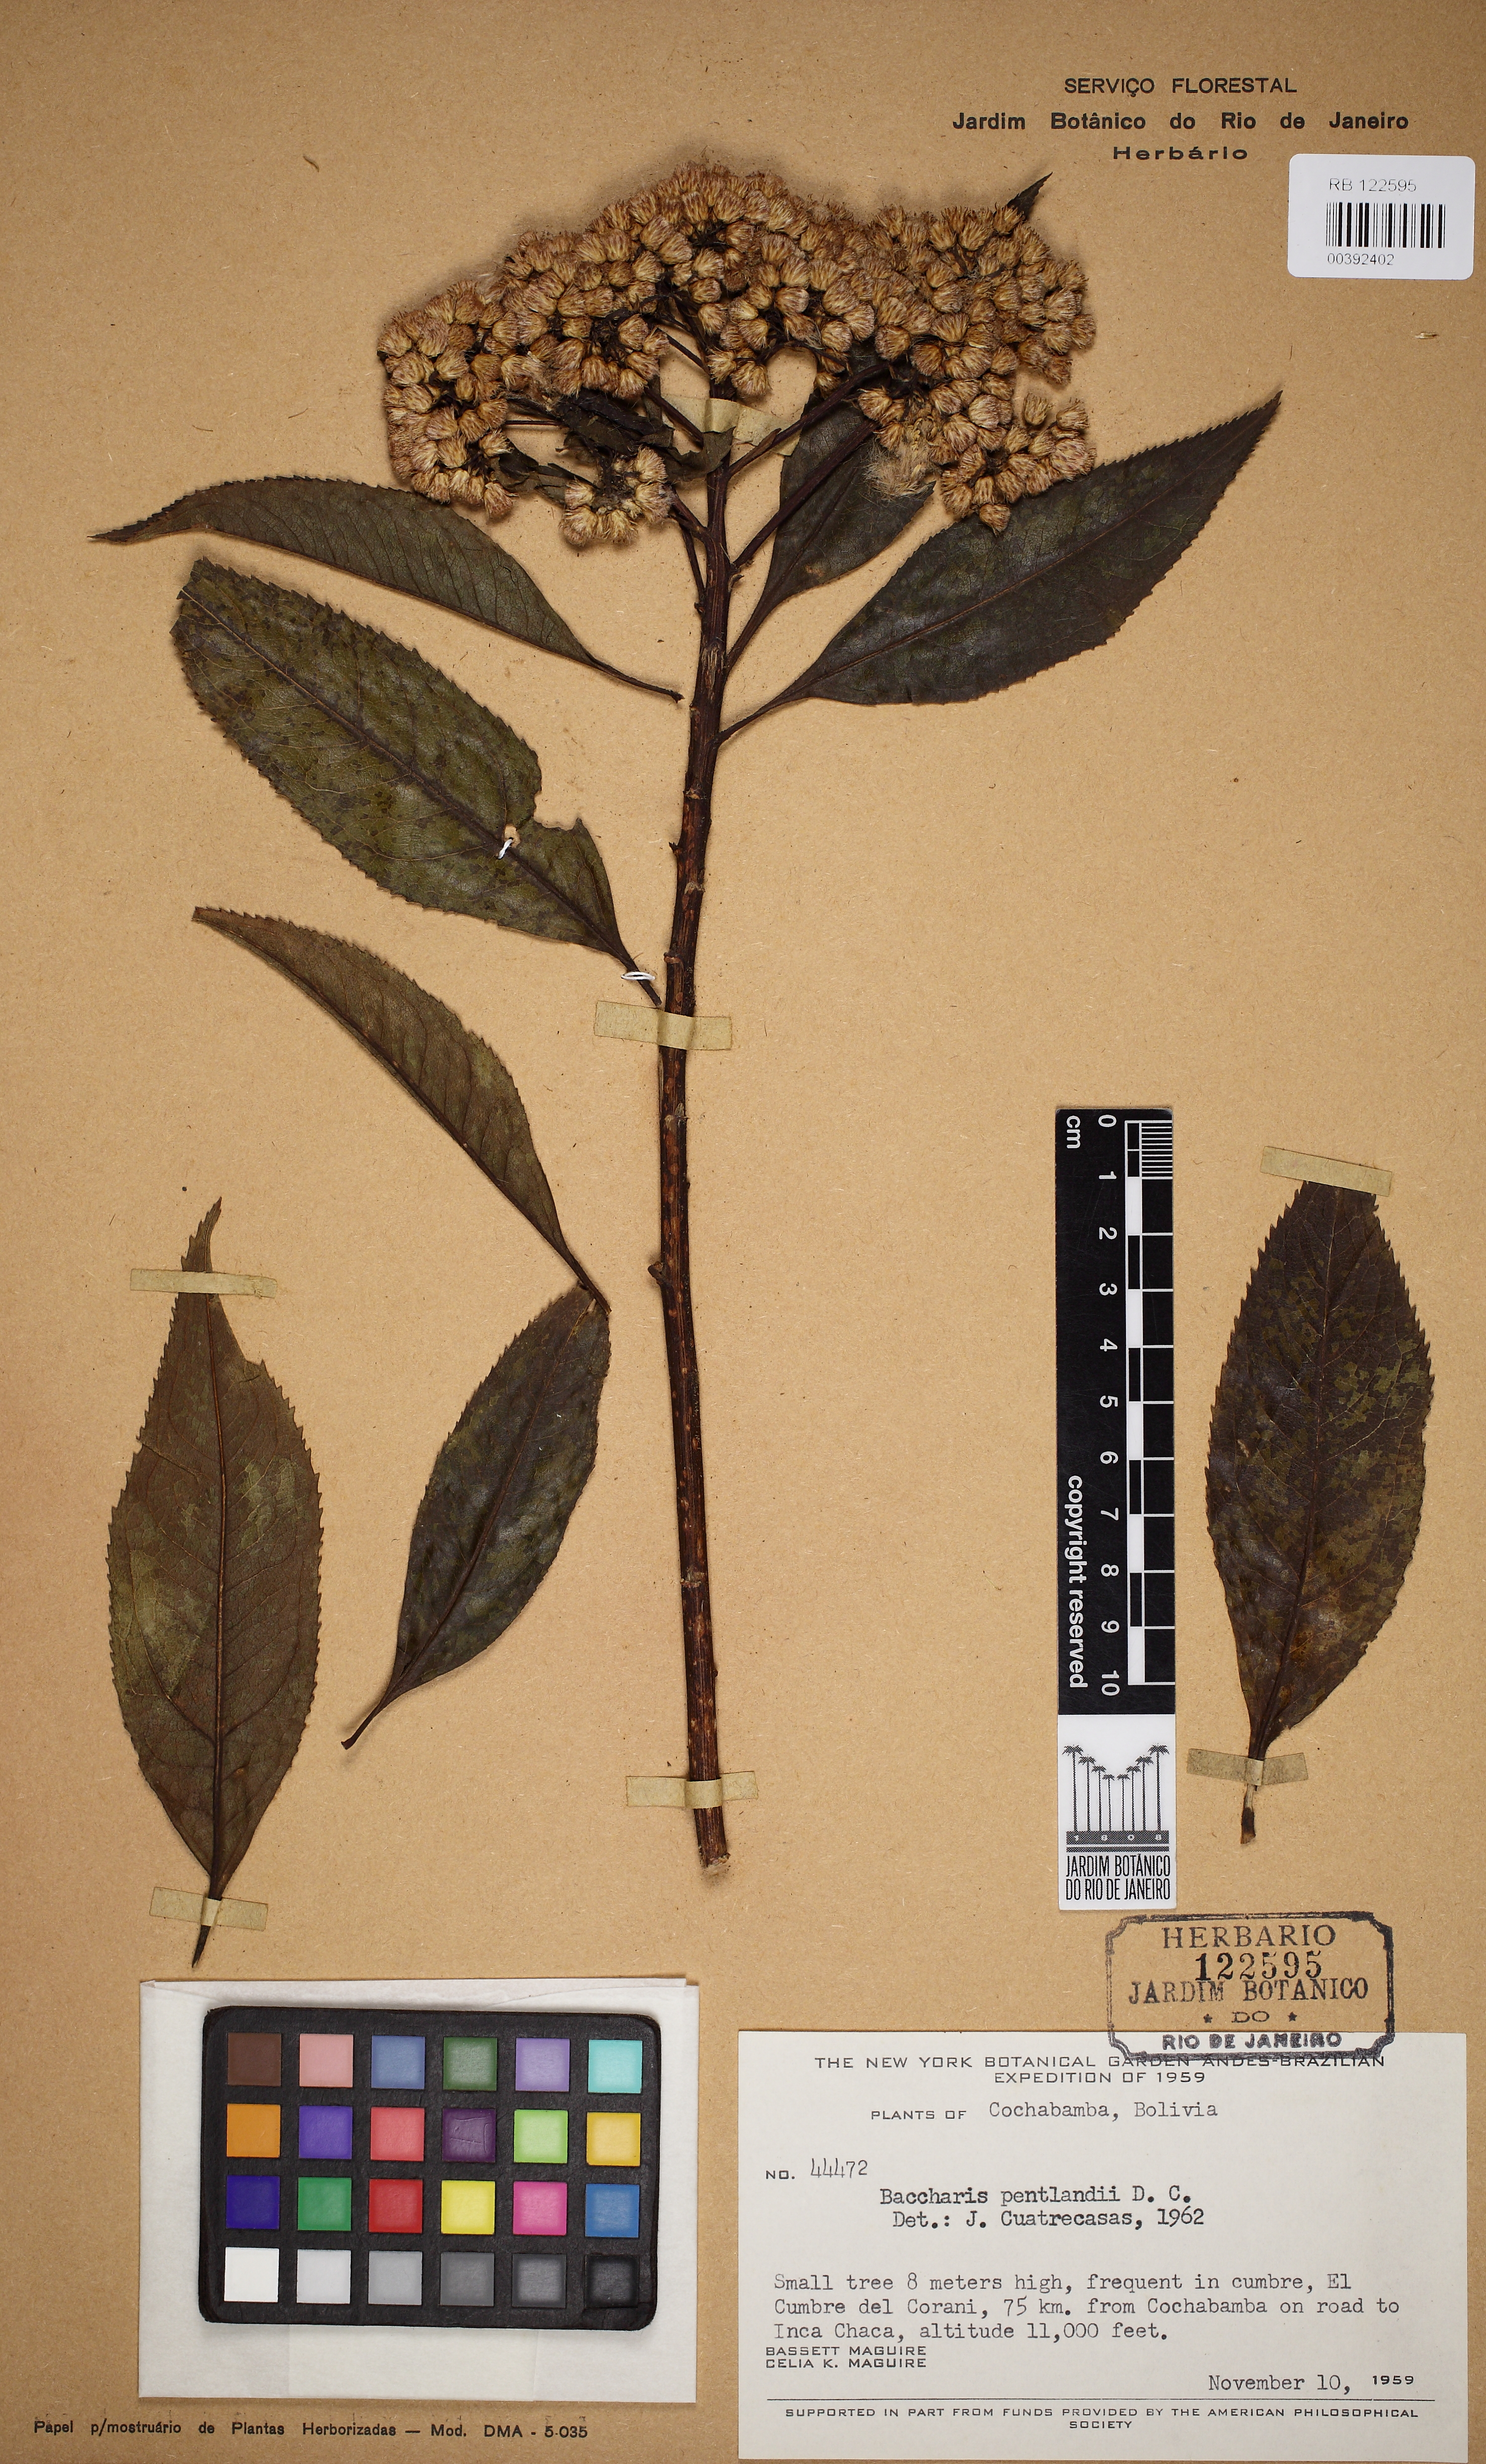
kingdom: Plantae
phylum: Tracheophyta
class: Magnoliopsida
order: Asterales
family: Asteraceae
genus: Baccharis
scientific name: Baccharis pentlandii
